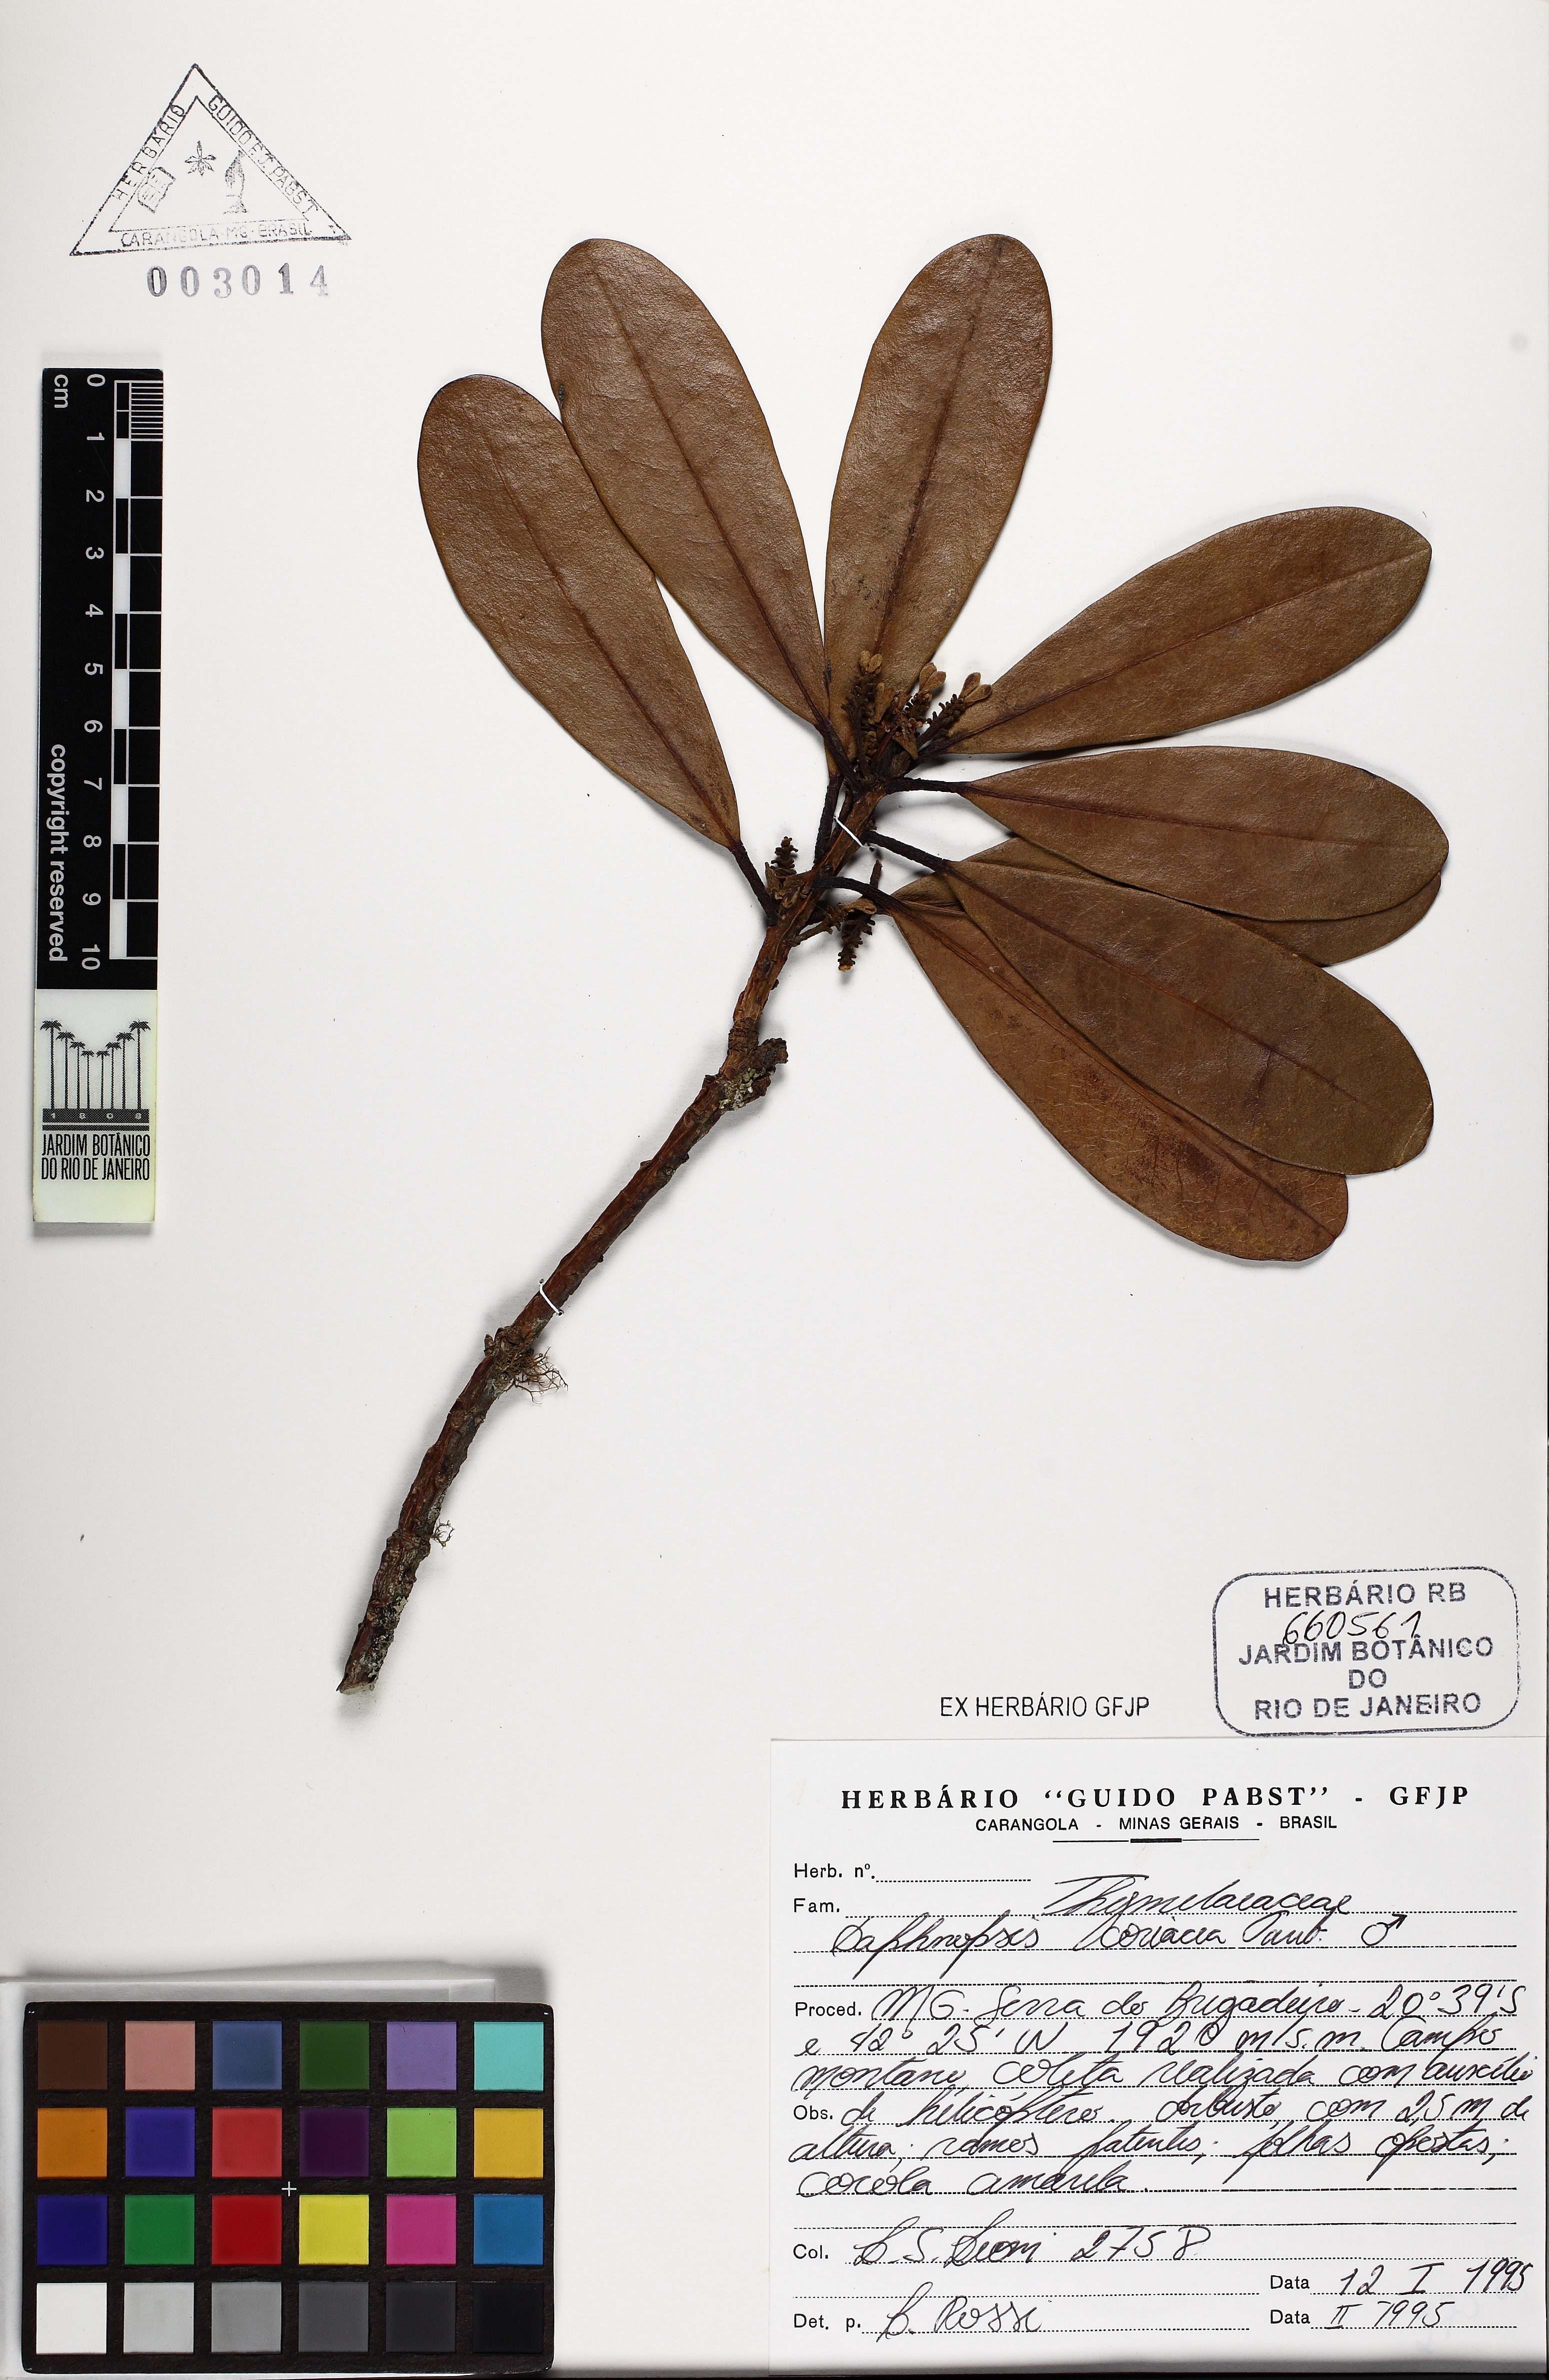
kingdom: Plantae
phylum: Tracheophyta
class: Magnoliopsida
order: Malvales
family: Thymelaeaceae
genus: Daphnopsis
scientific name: Daphnopsis coriacea
